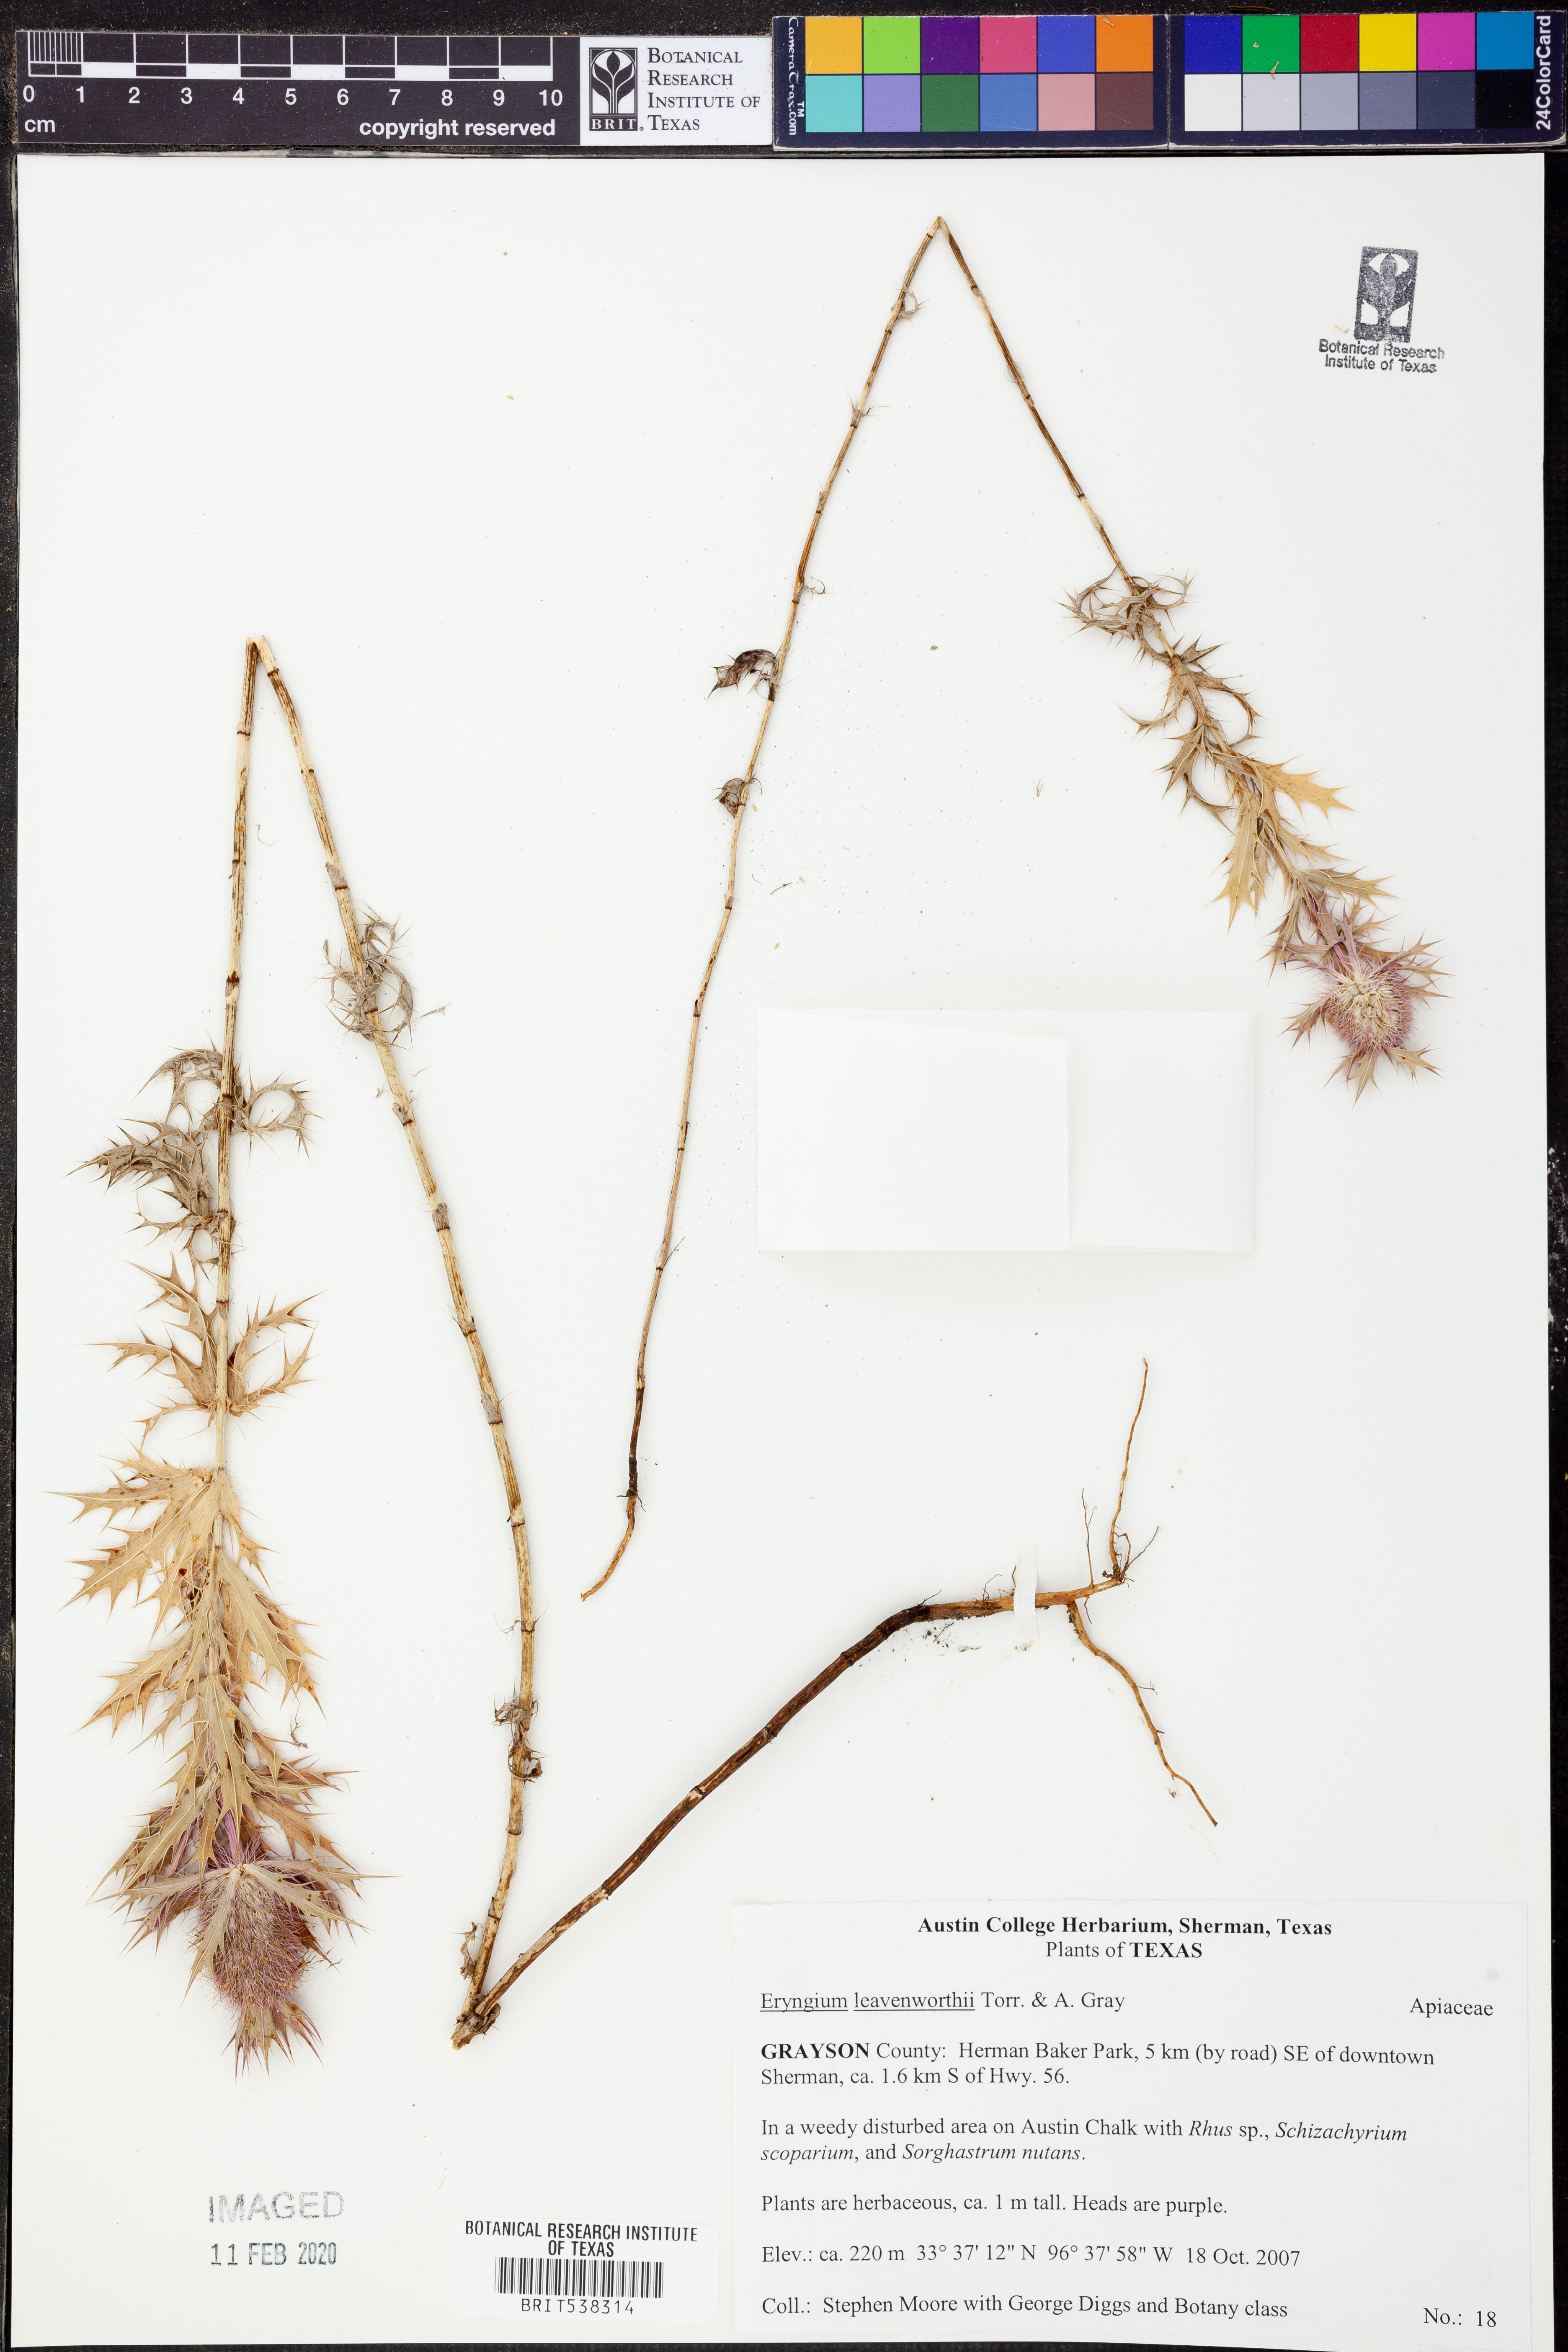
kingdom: Plantae
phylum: Tracheophyta
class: Magnoliopsida
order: Apiales
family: Apiaceae
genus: Eryngium
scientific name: Eryngium leavenworthii
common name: Leavenworth's eryngo
